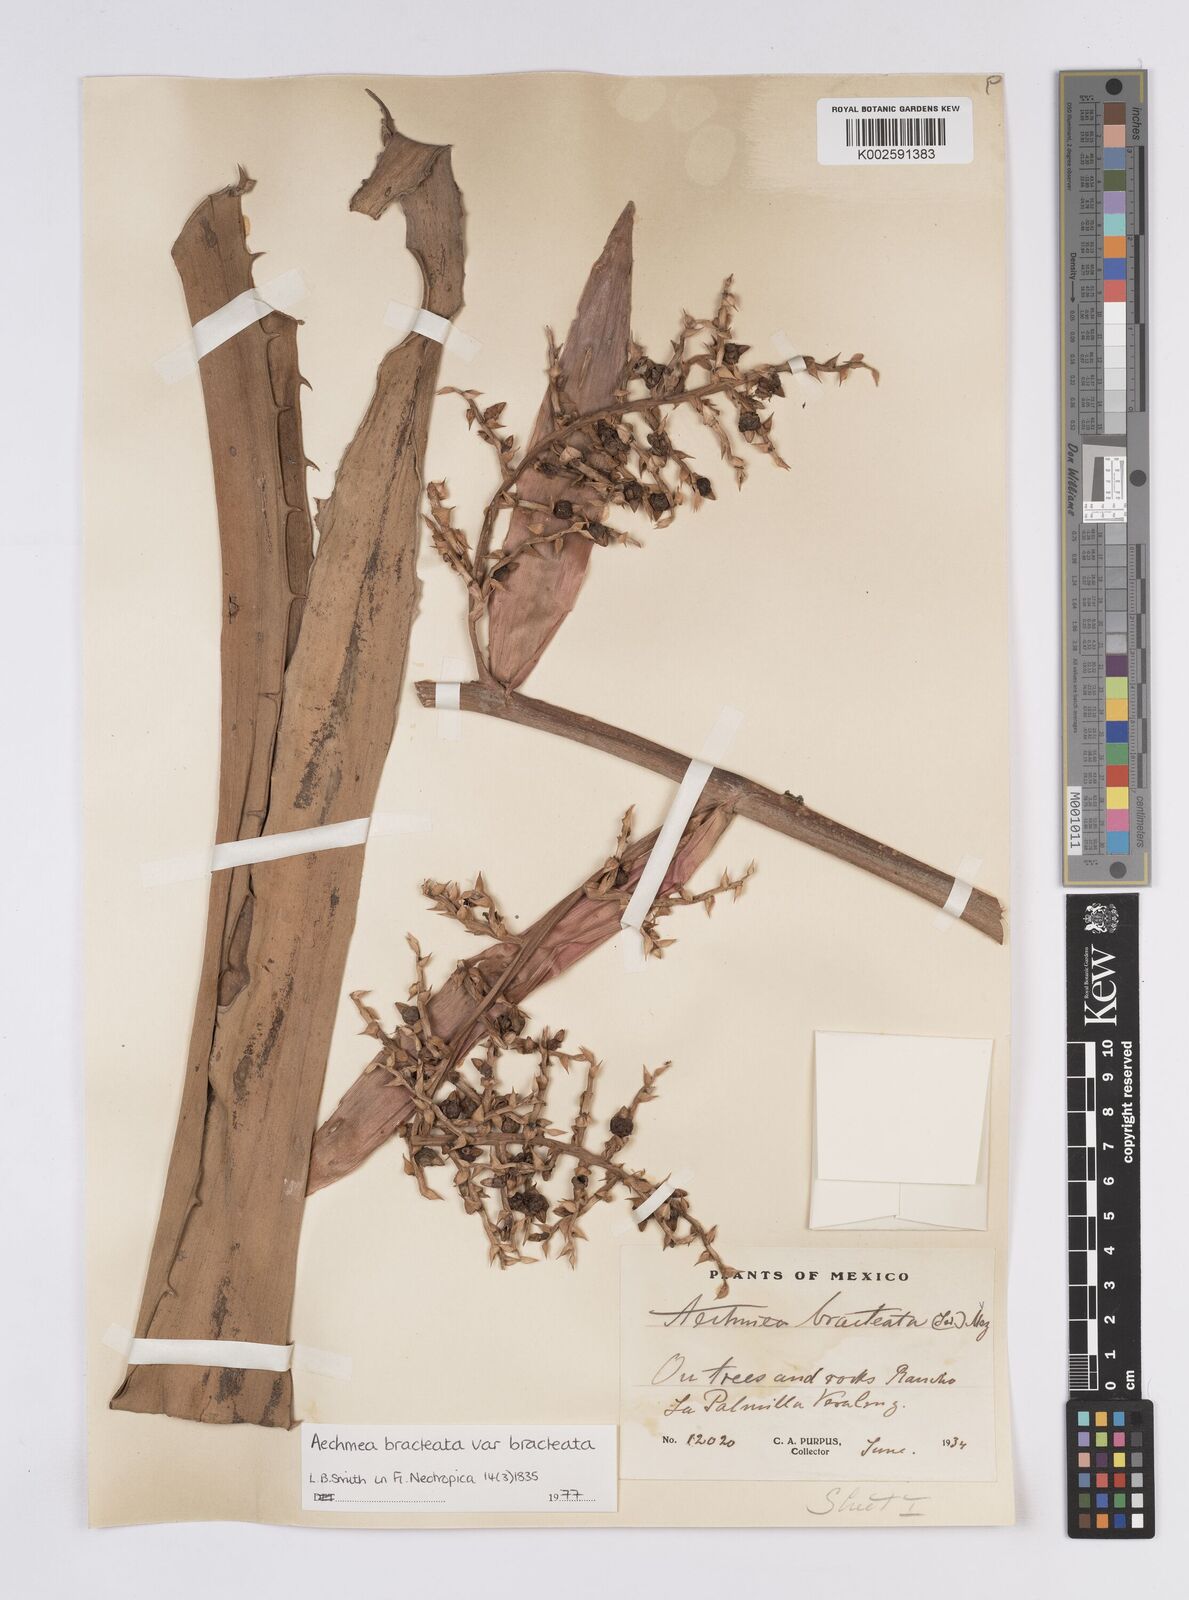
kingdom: Plantae
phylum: Tracheophyta
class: Liliopsida
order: Poales
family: Bromeliaceae
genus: Aechmea
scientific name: Aechmea bracteata
